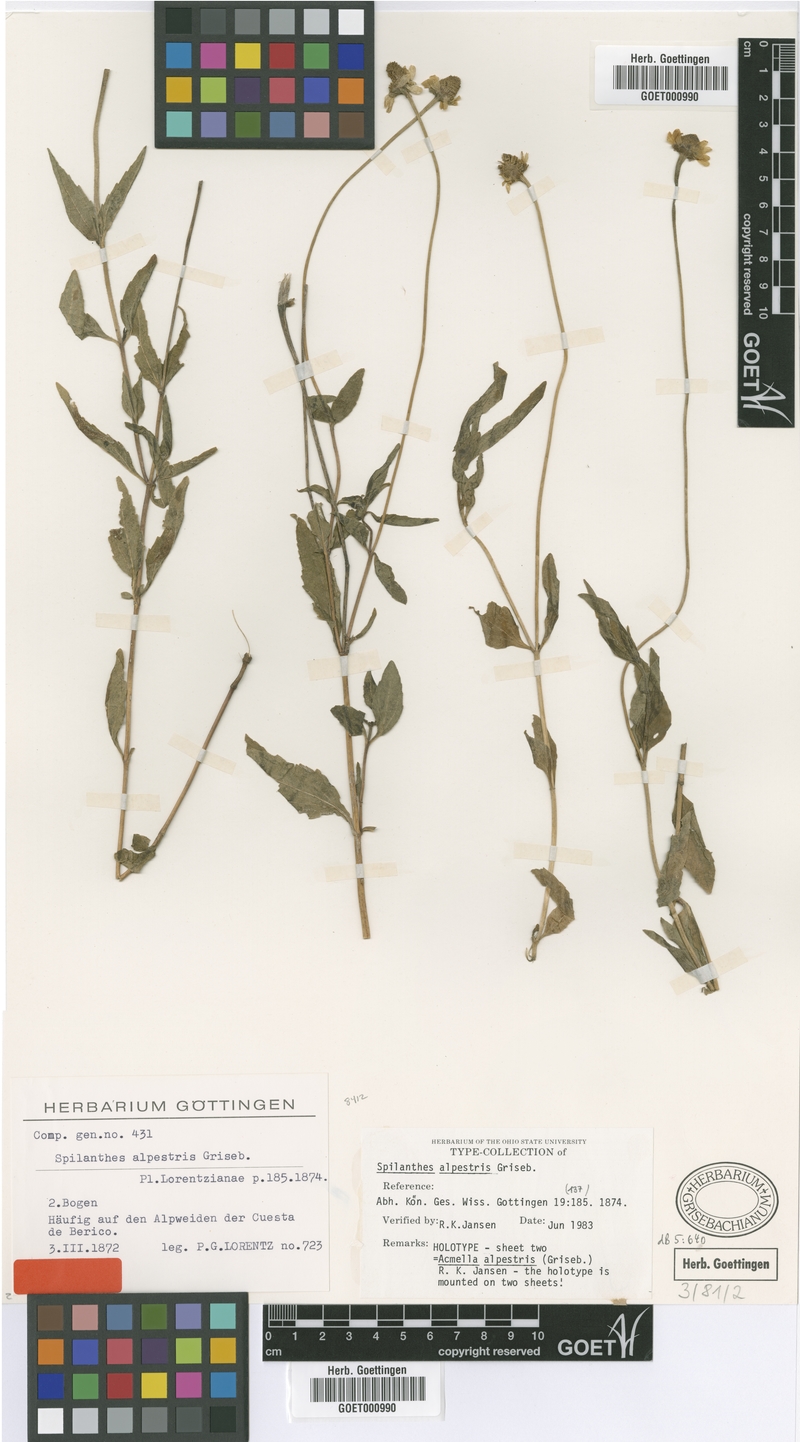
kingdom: Plantae
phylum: Tracheophyta
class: Magnoliopsida
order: Asterales
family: Asteraceae
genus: Acmella
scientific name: Acmella alpestris
